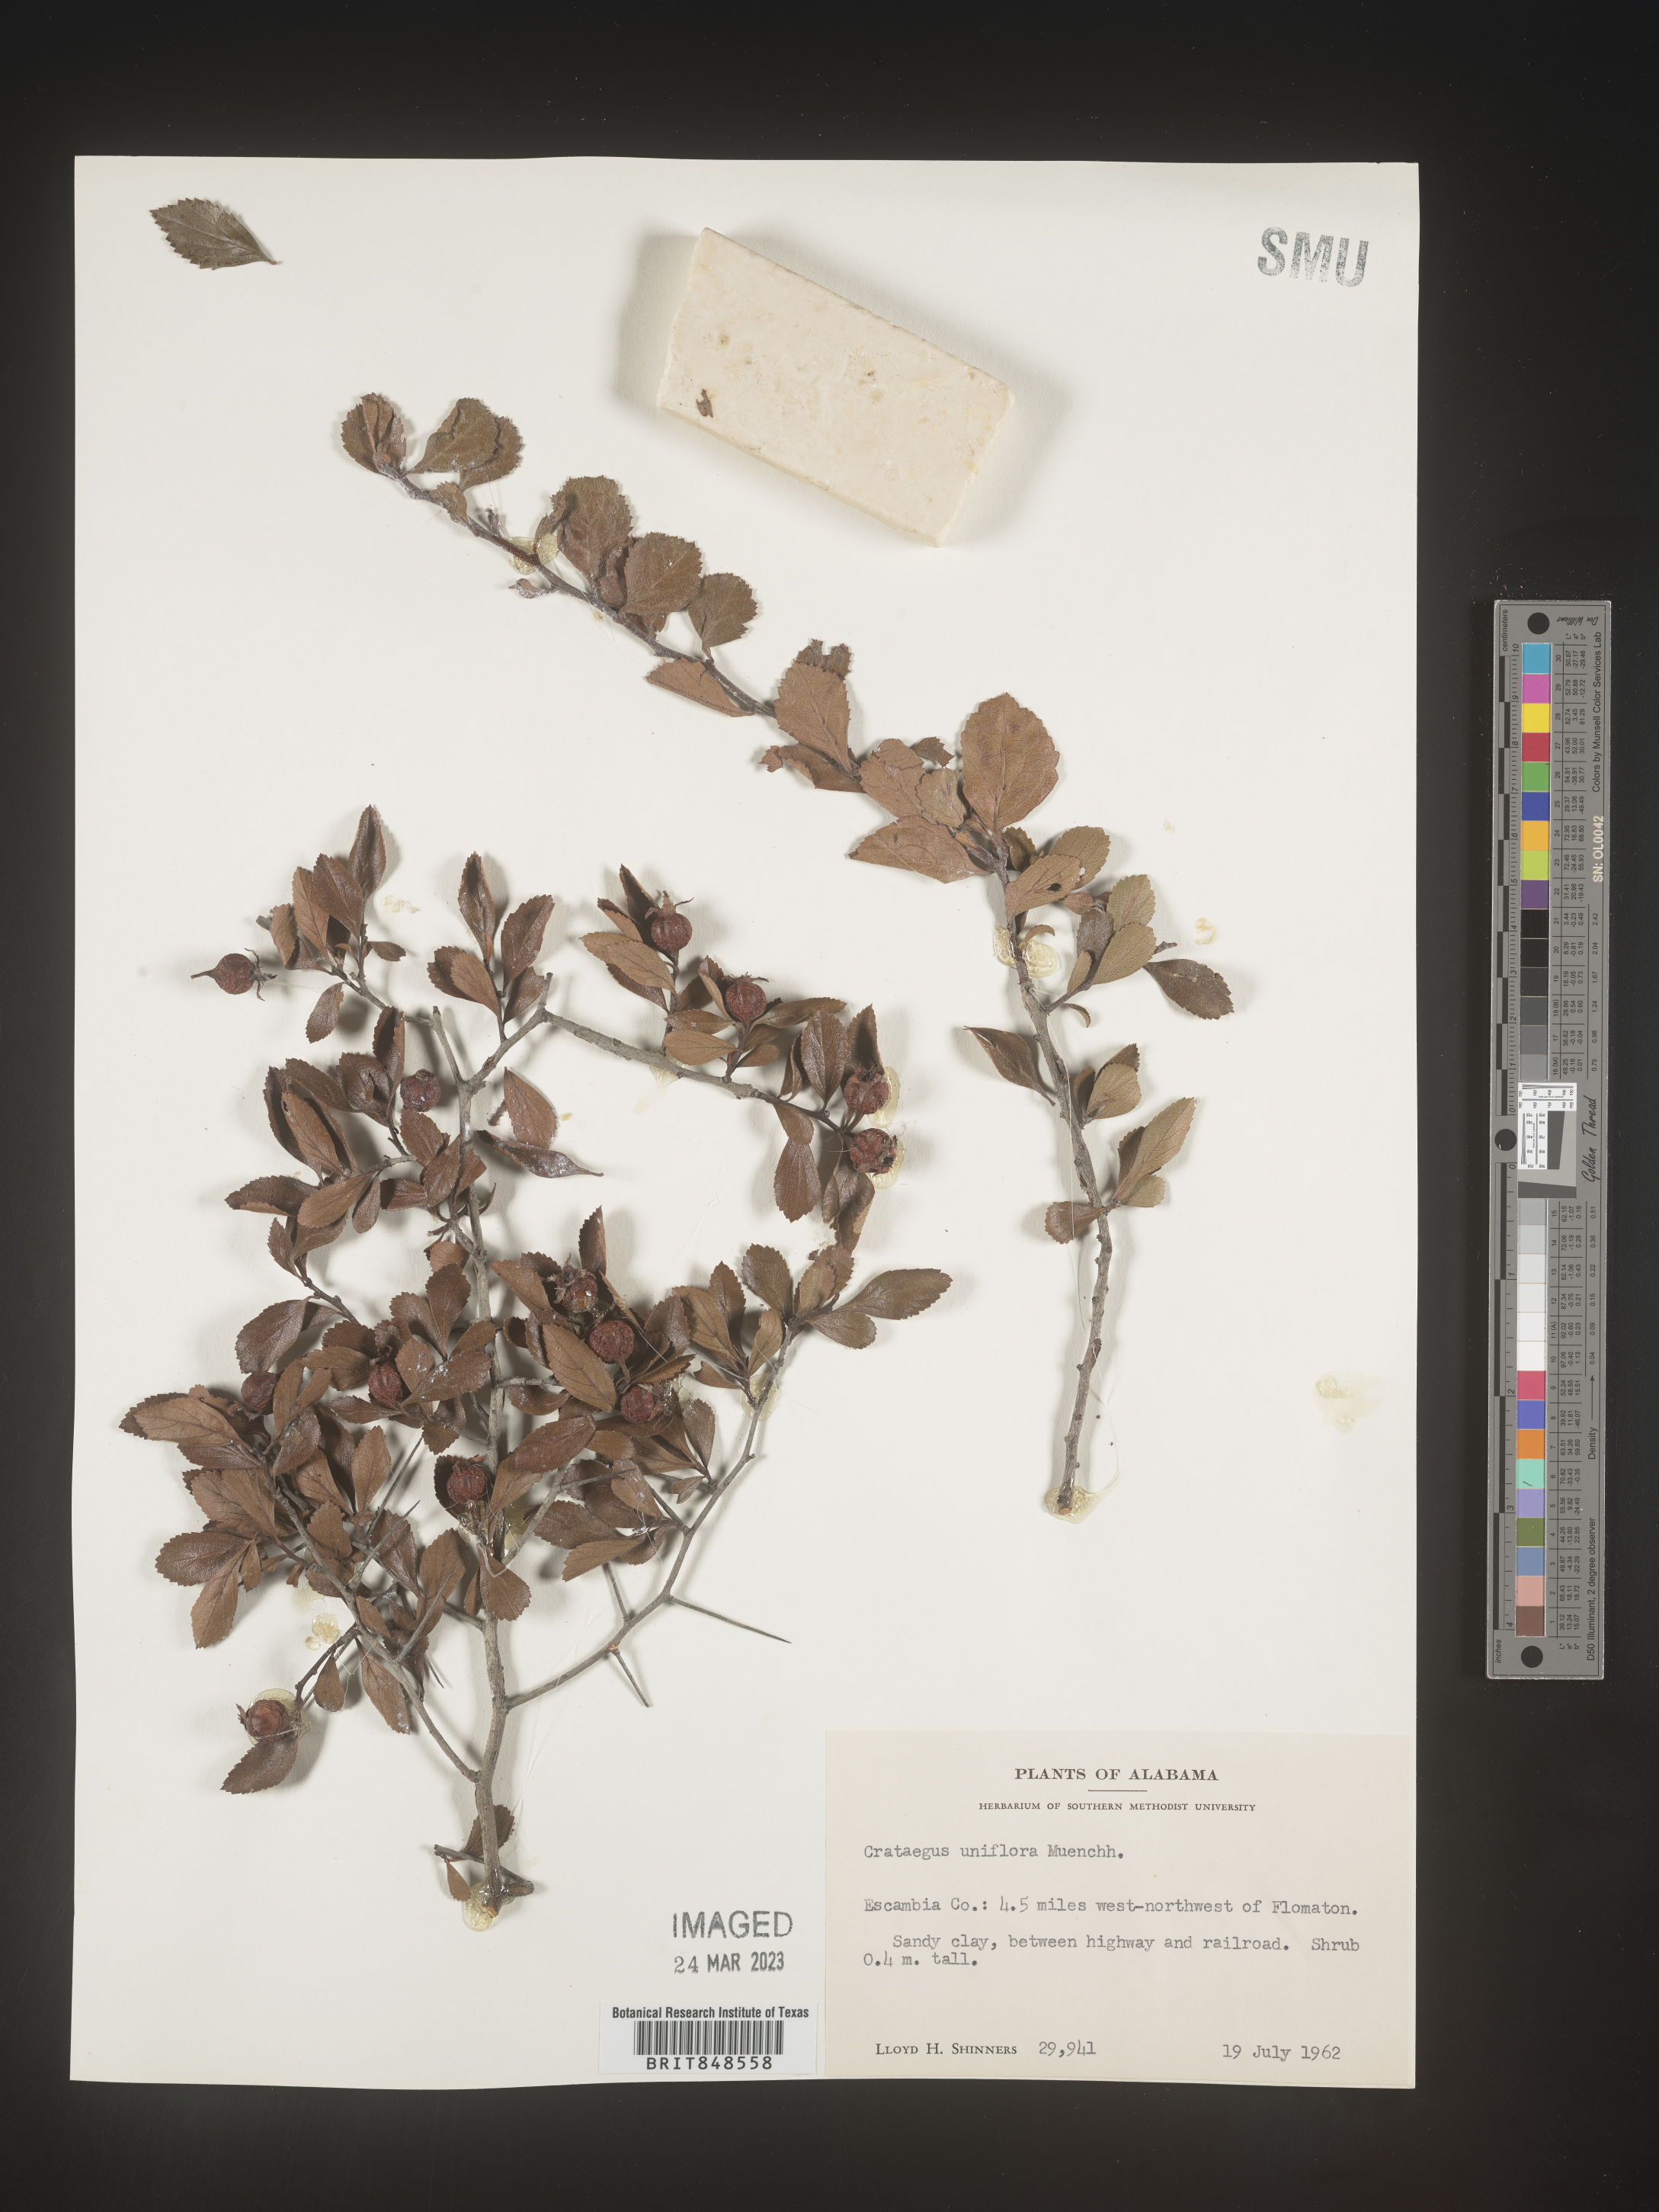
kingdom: Plantae
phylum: Tracheophyta
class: Magnoliopsida
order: Rosales
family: Rosaceae
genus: Crataegus
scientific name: Crataegus uniflora
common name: One-flower hawthorn
